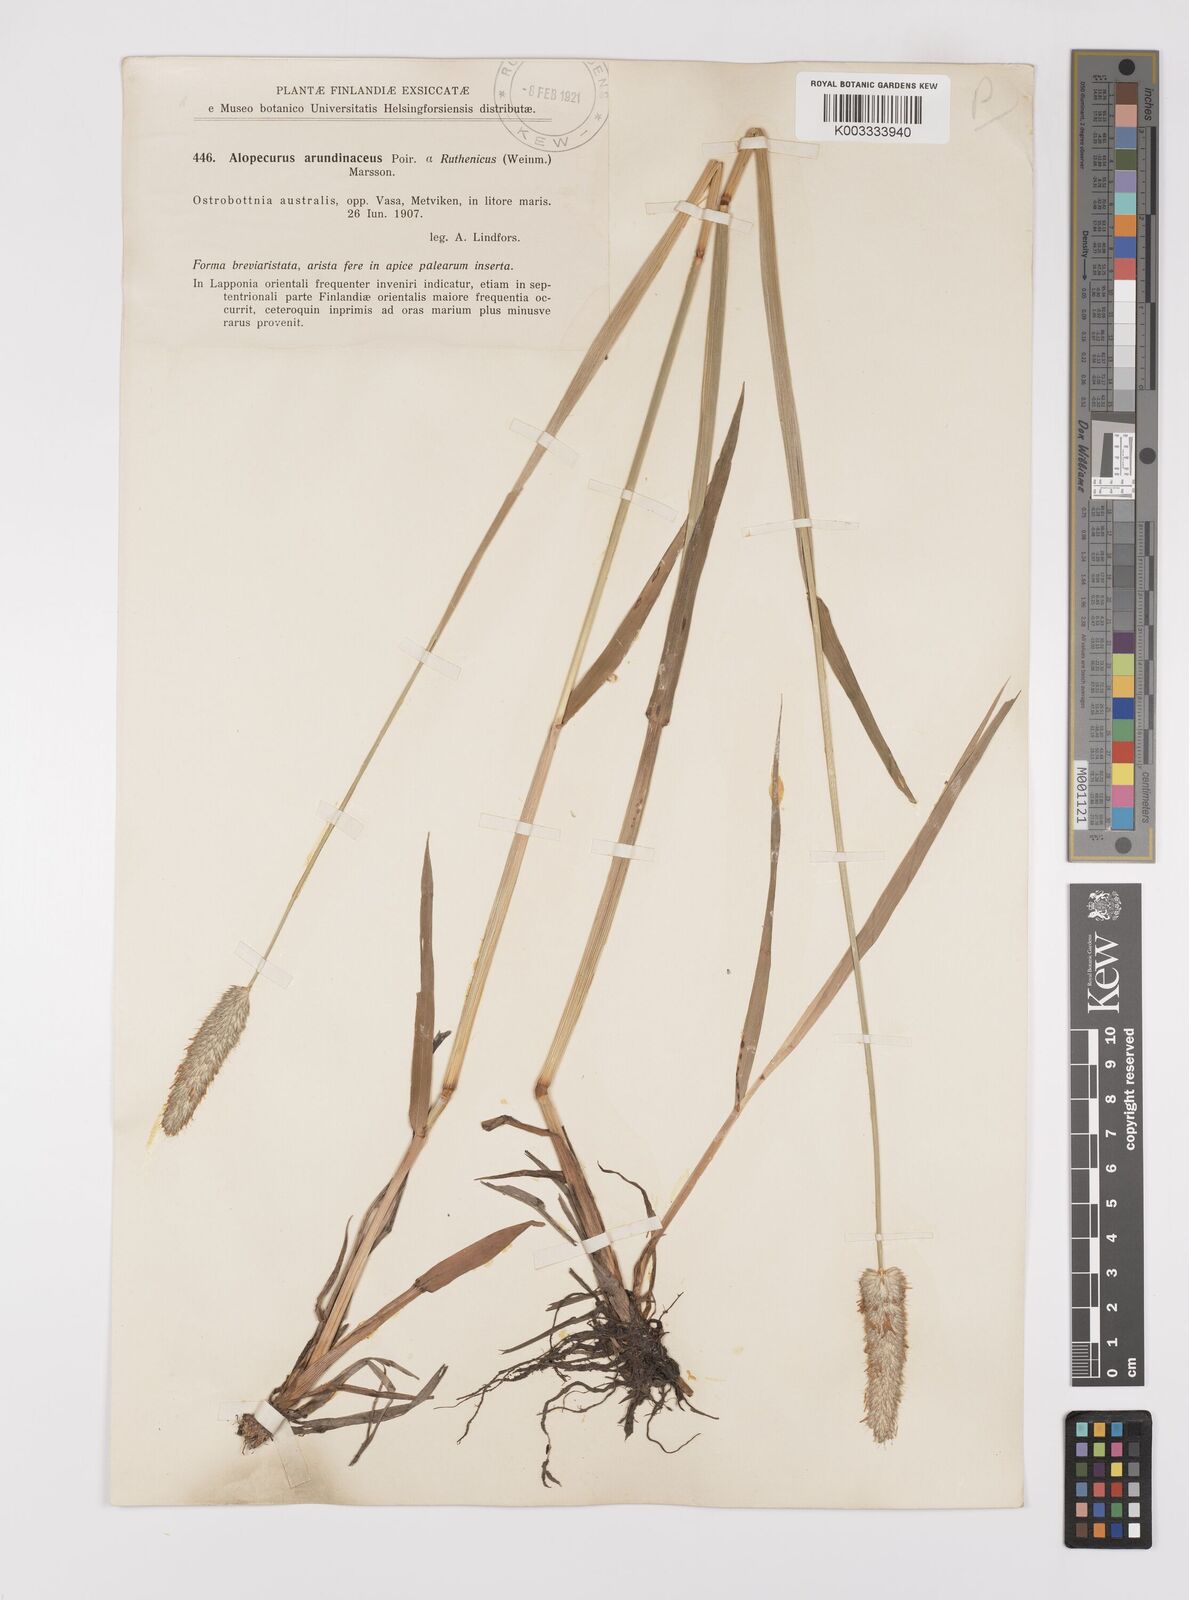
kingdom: Plantae
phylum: Tracheophyta
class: Liliopsida
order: Poales
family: Poaceae
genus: Alopecurus
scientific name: Alopecurus arundinaceus
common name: Creeping meadow foxtail
